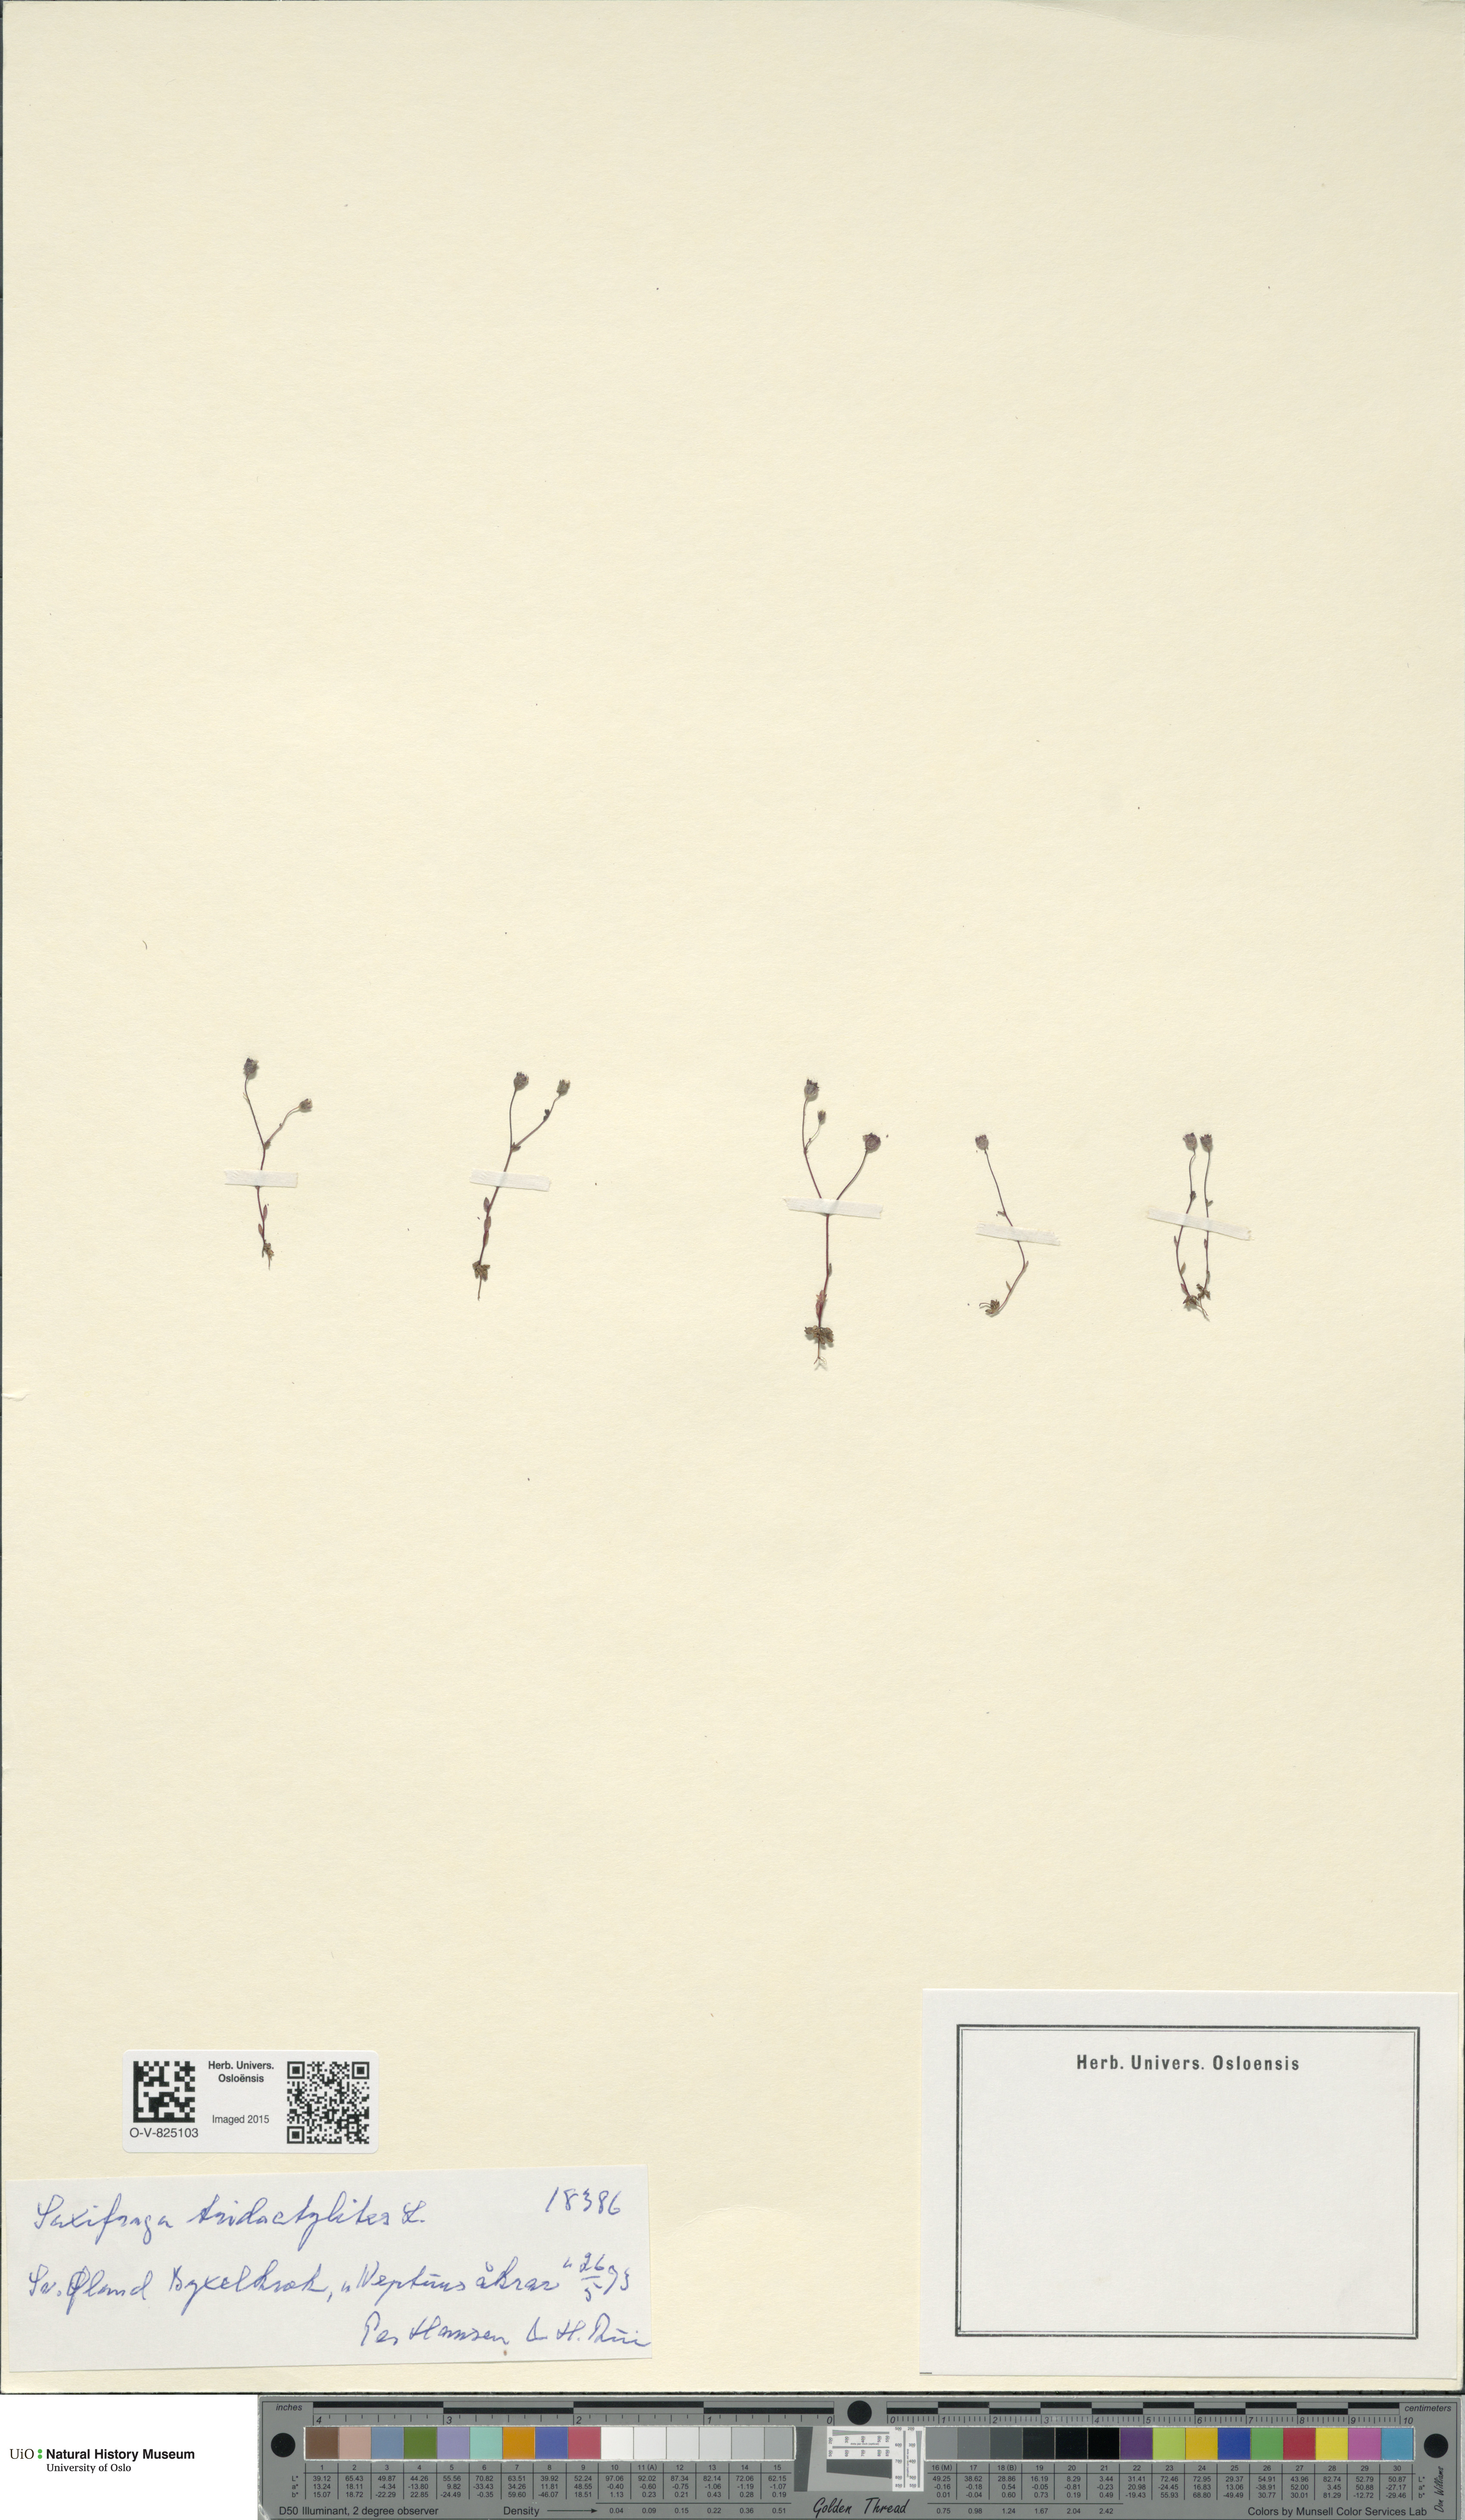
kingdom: Plantae
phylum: Tracheophyta
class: Magnoliopsida
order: Saxifragales
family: Saxifragaceae
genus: Saxifraga
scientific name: Saxifraga tridactylites
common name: Rue-leaved saxifrage
